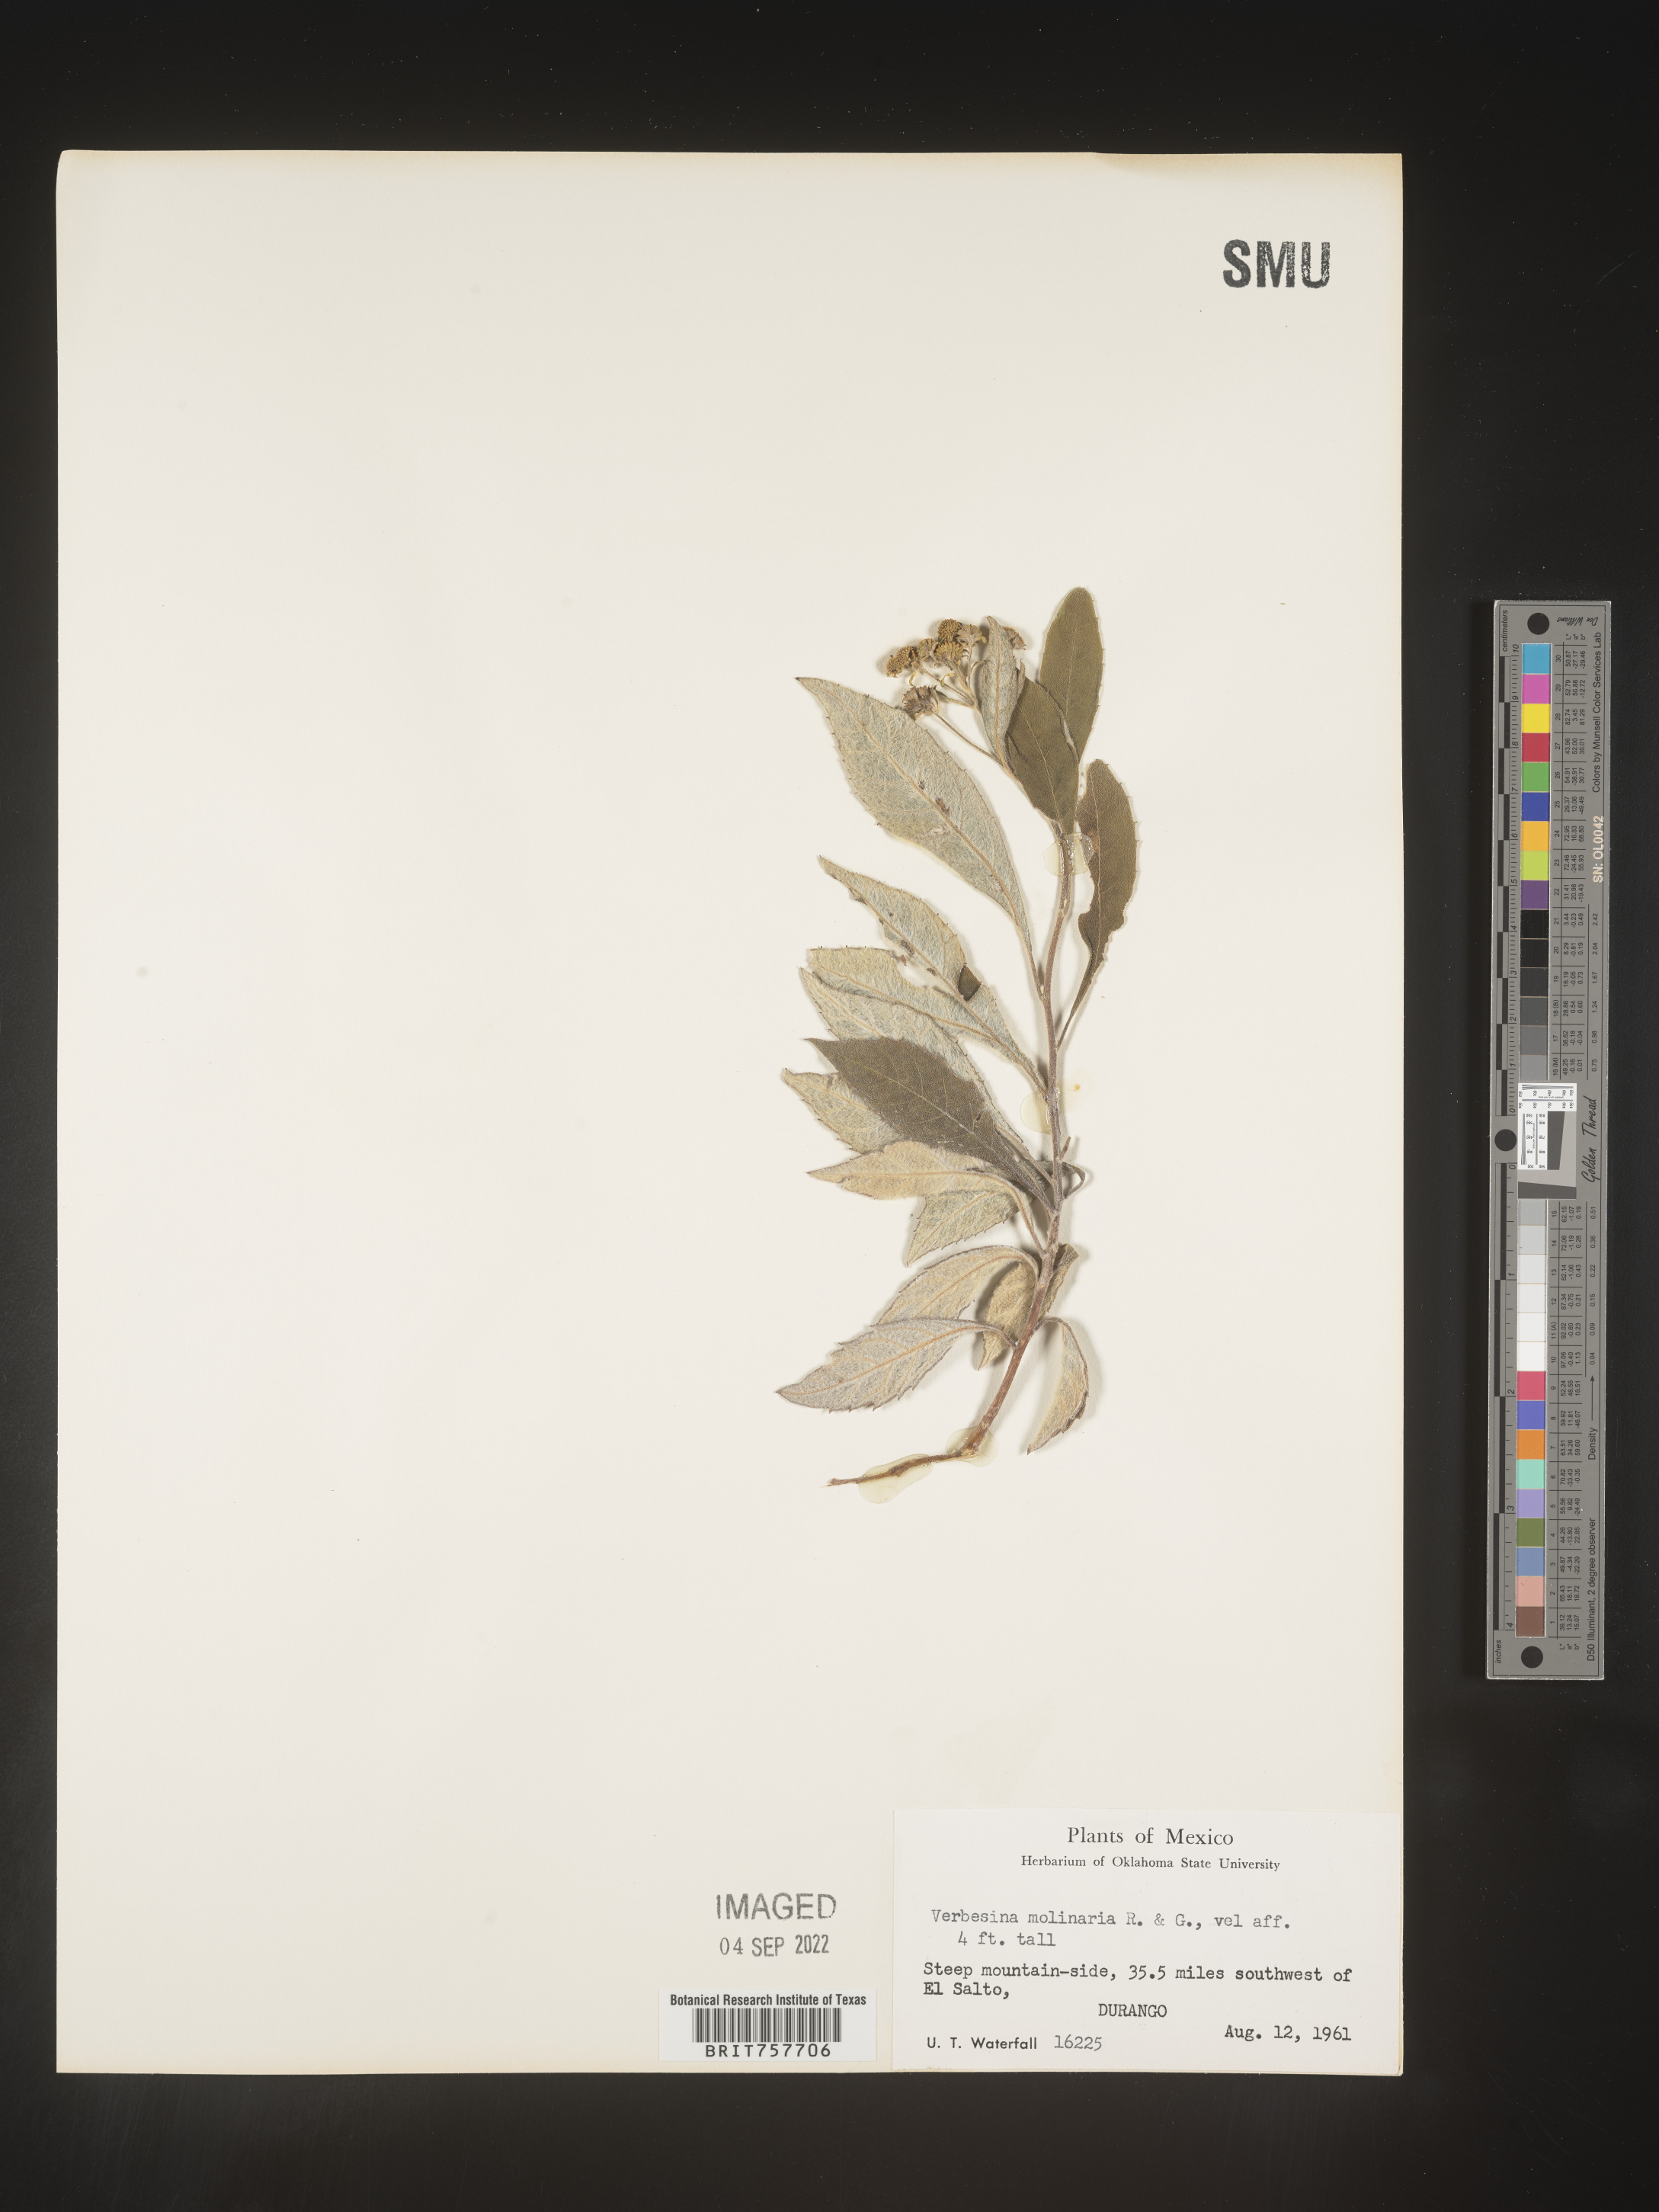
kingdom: Plantae
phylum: Tracheophyta
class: Magnoliopsida
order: Asterales
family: Asteraceae
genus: Verbesina
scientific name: Verbesina
